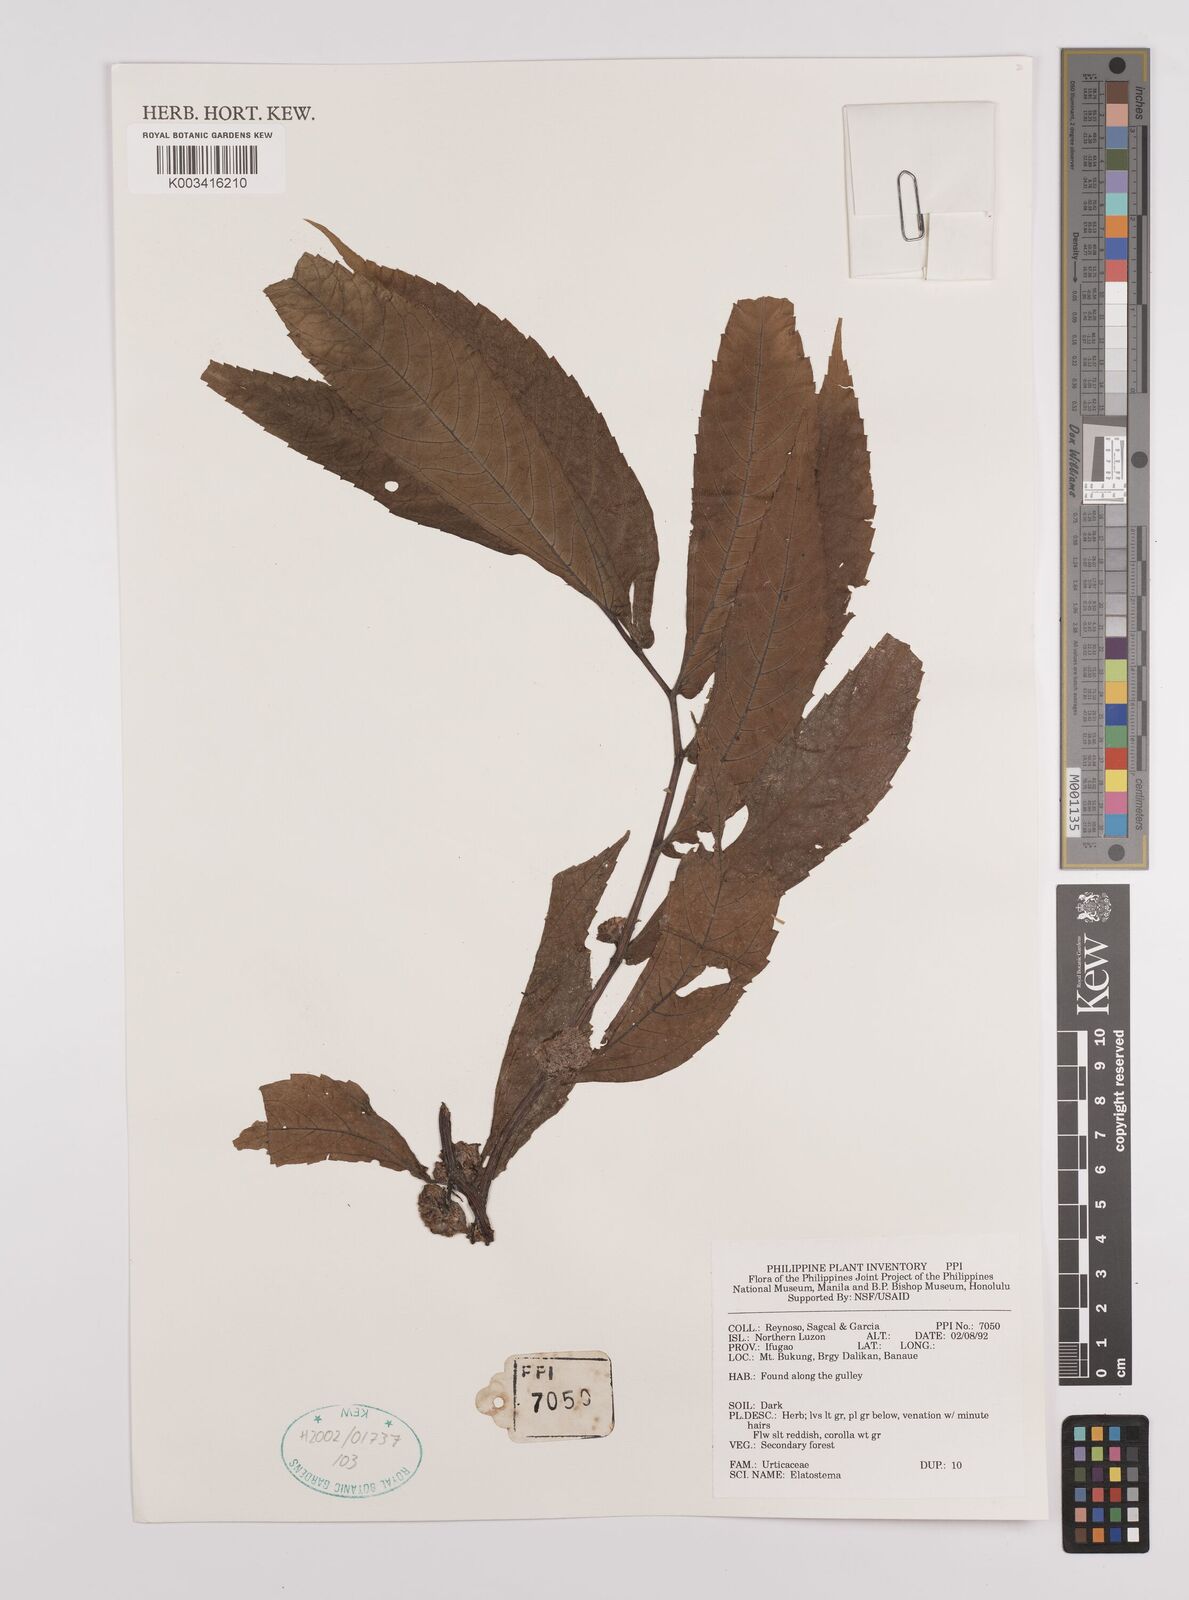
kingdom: Plantae
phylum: Tracheophyta
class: Magnoliopsida
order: Rosales
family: Urticaceae
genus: Elatostema
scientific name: Elatostema
